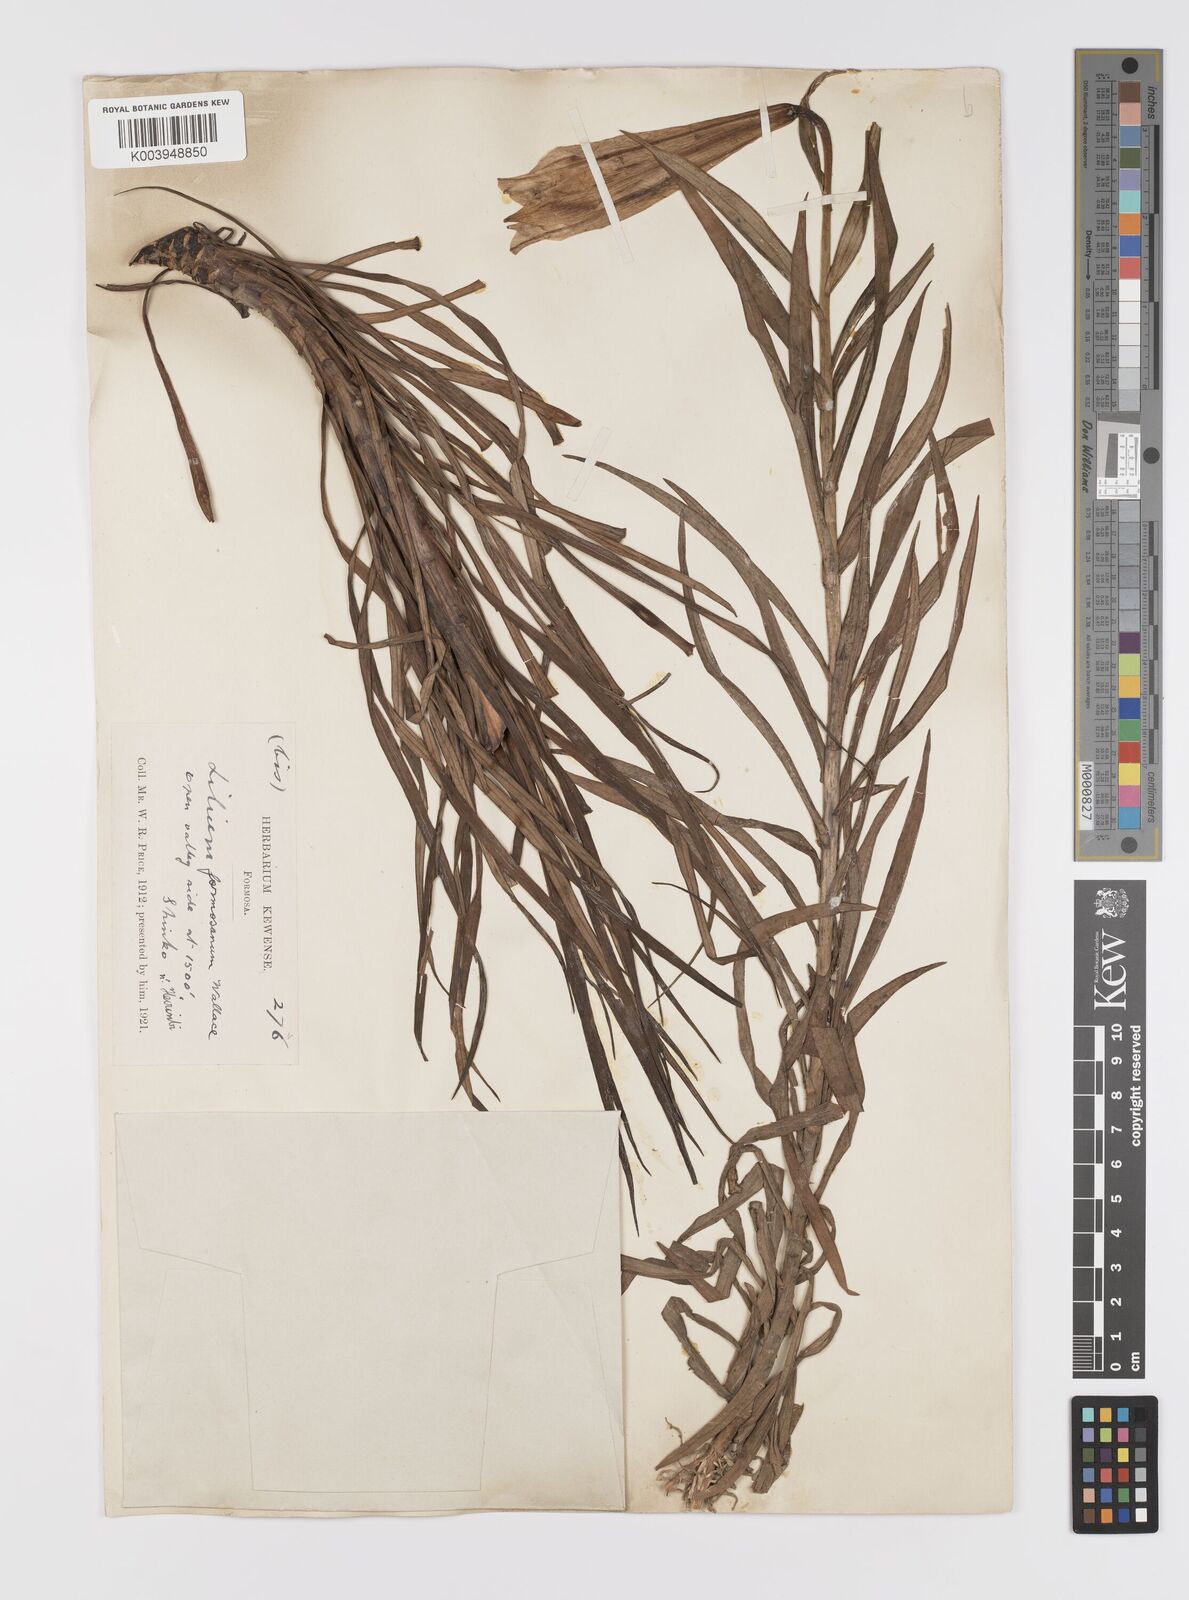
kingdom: Plantae
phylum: Tracheophyta
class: Liliopsida
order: Liliales
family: Liliaceae
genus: Lilium
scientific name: Lilium formosanum
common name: Formosa lily
